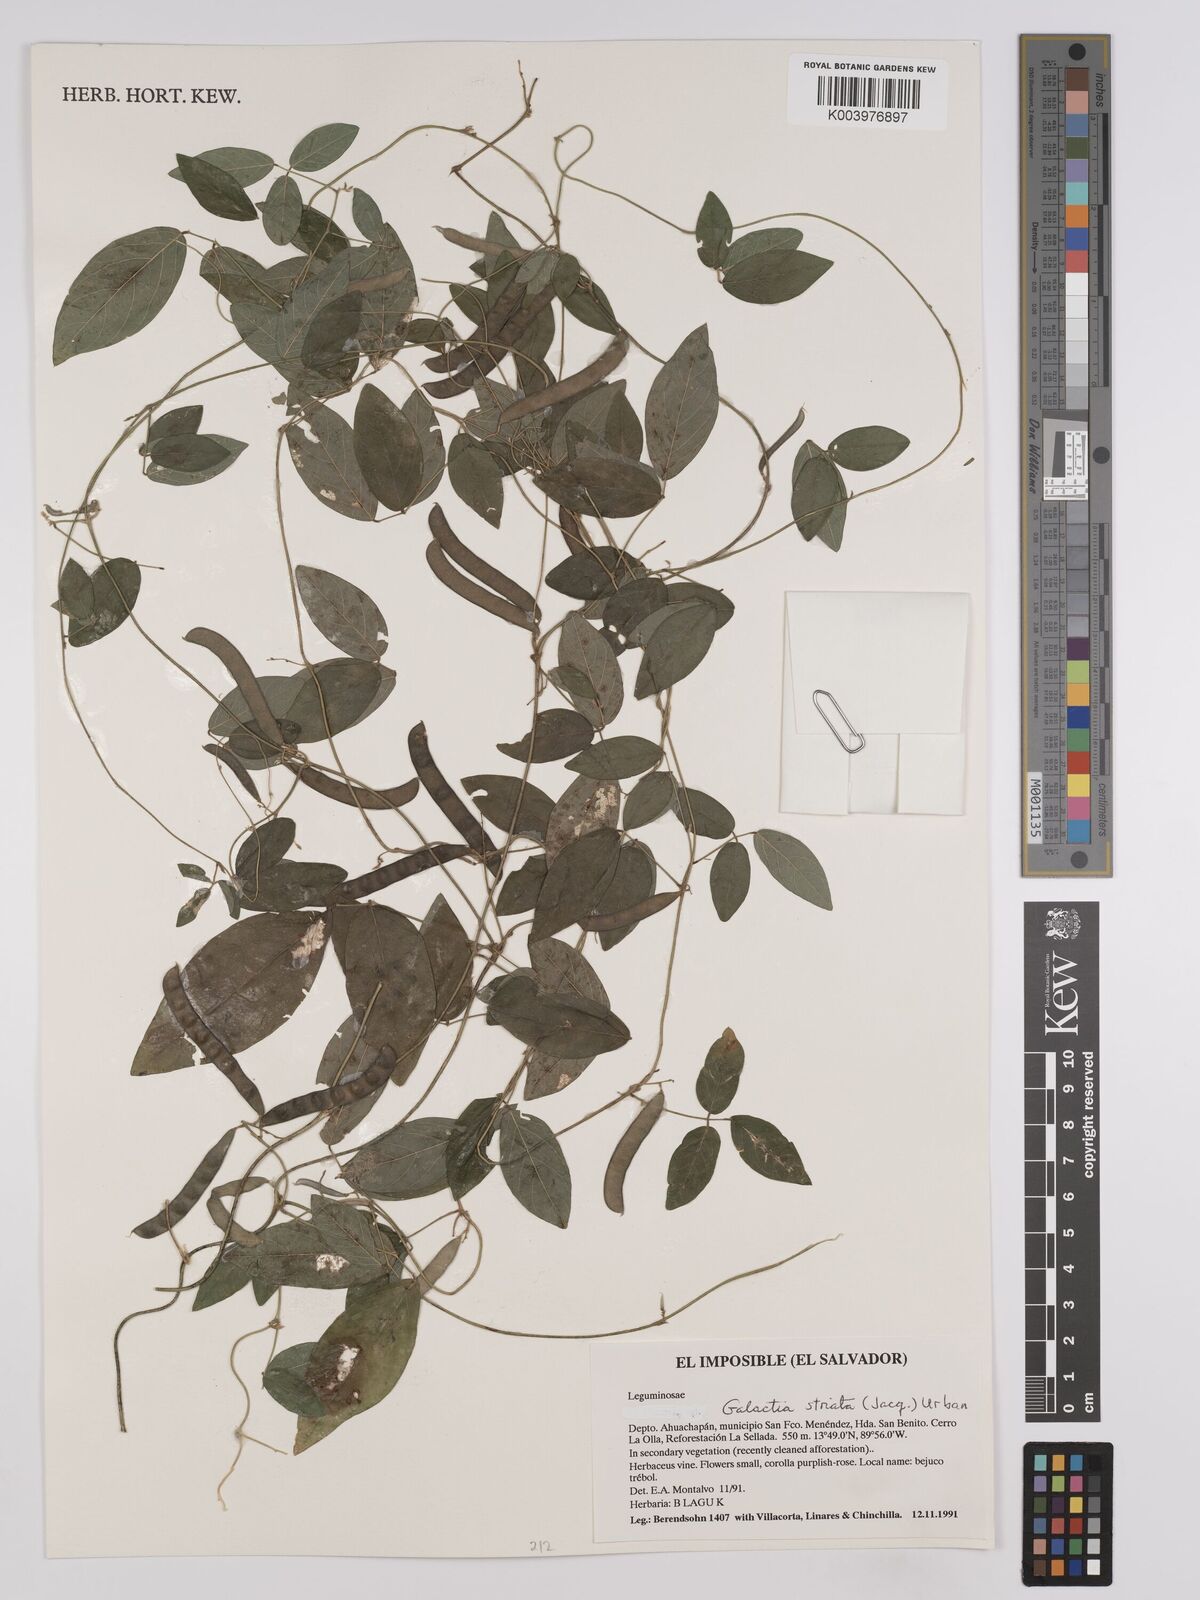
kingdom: Plantae
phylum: Tracheophyta
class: Magnoliopsida
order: Fabales
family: Fabaceae
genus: Galactia
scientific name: Galactia striata
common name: Florida hammock milkpea
